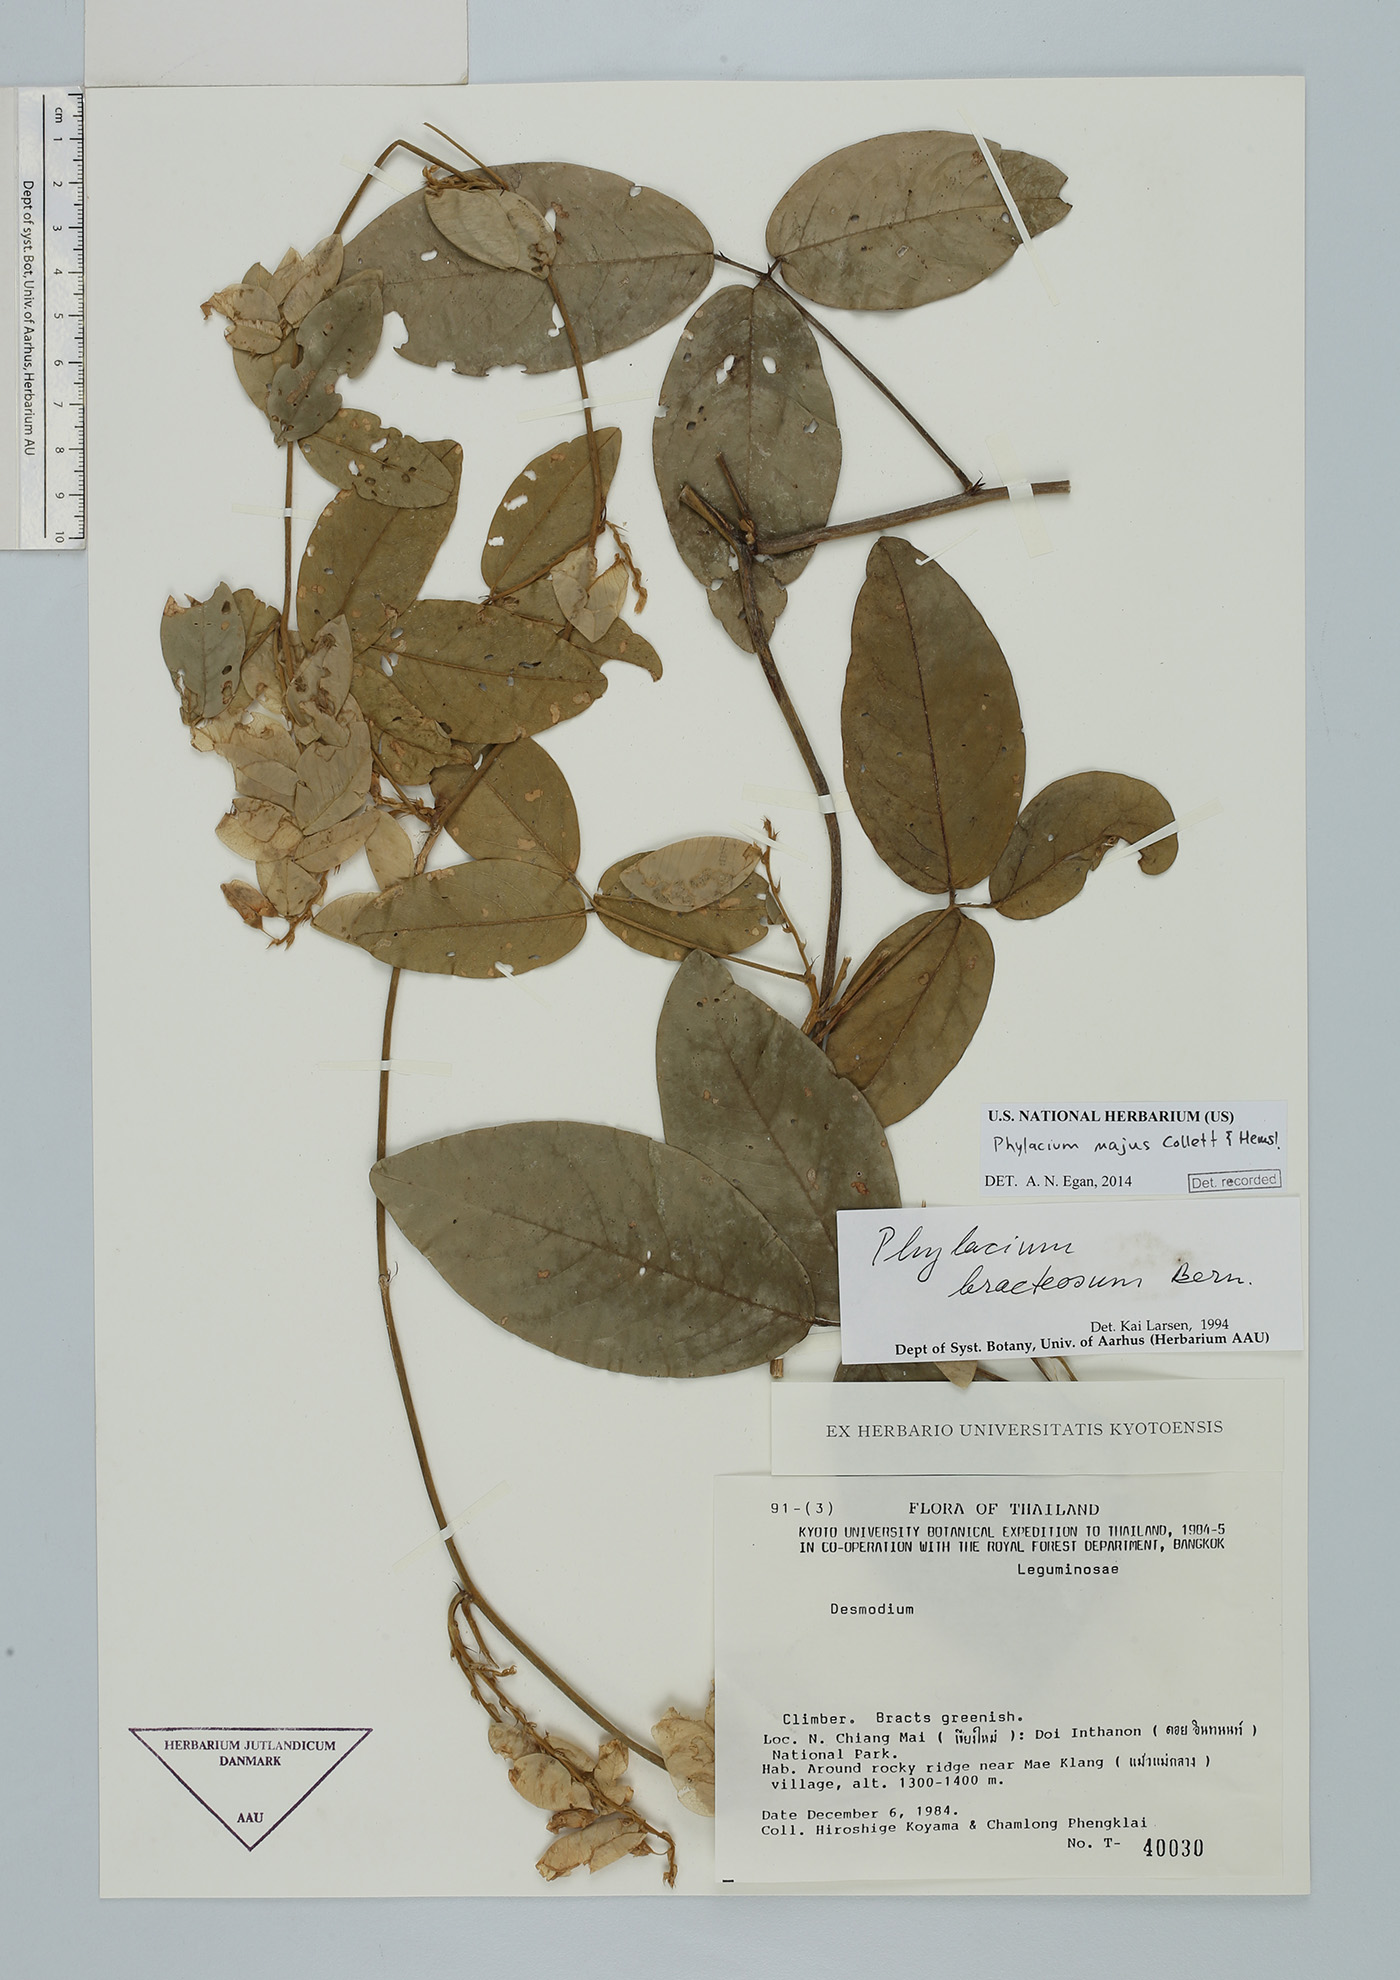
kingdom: Plantae
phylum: Tracheophyta
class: Magnoliopsida
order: Fabales
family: Fabaceae
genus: Phylacium
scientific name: Phylacium majus
